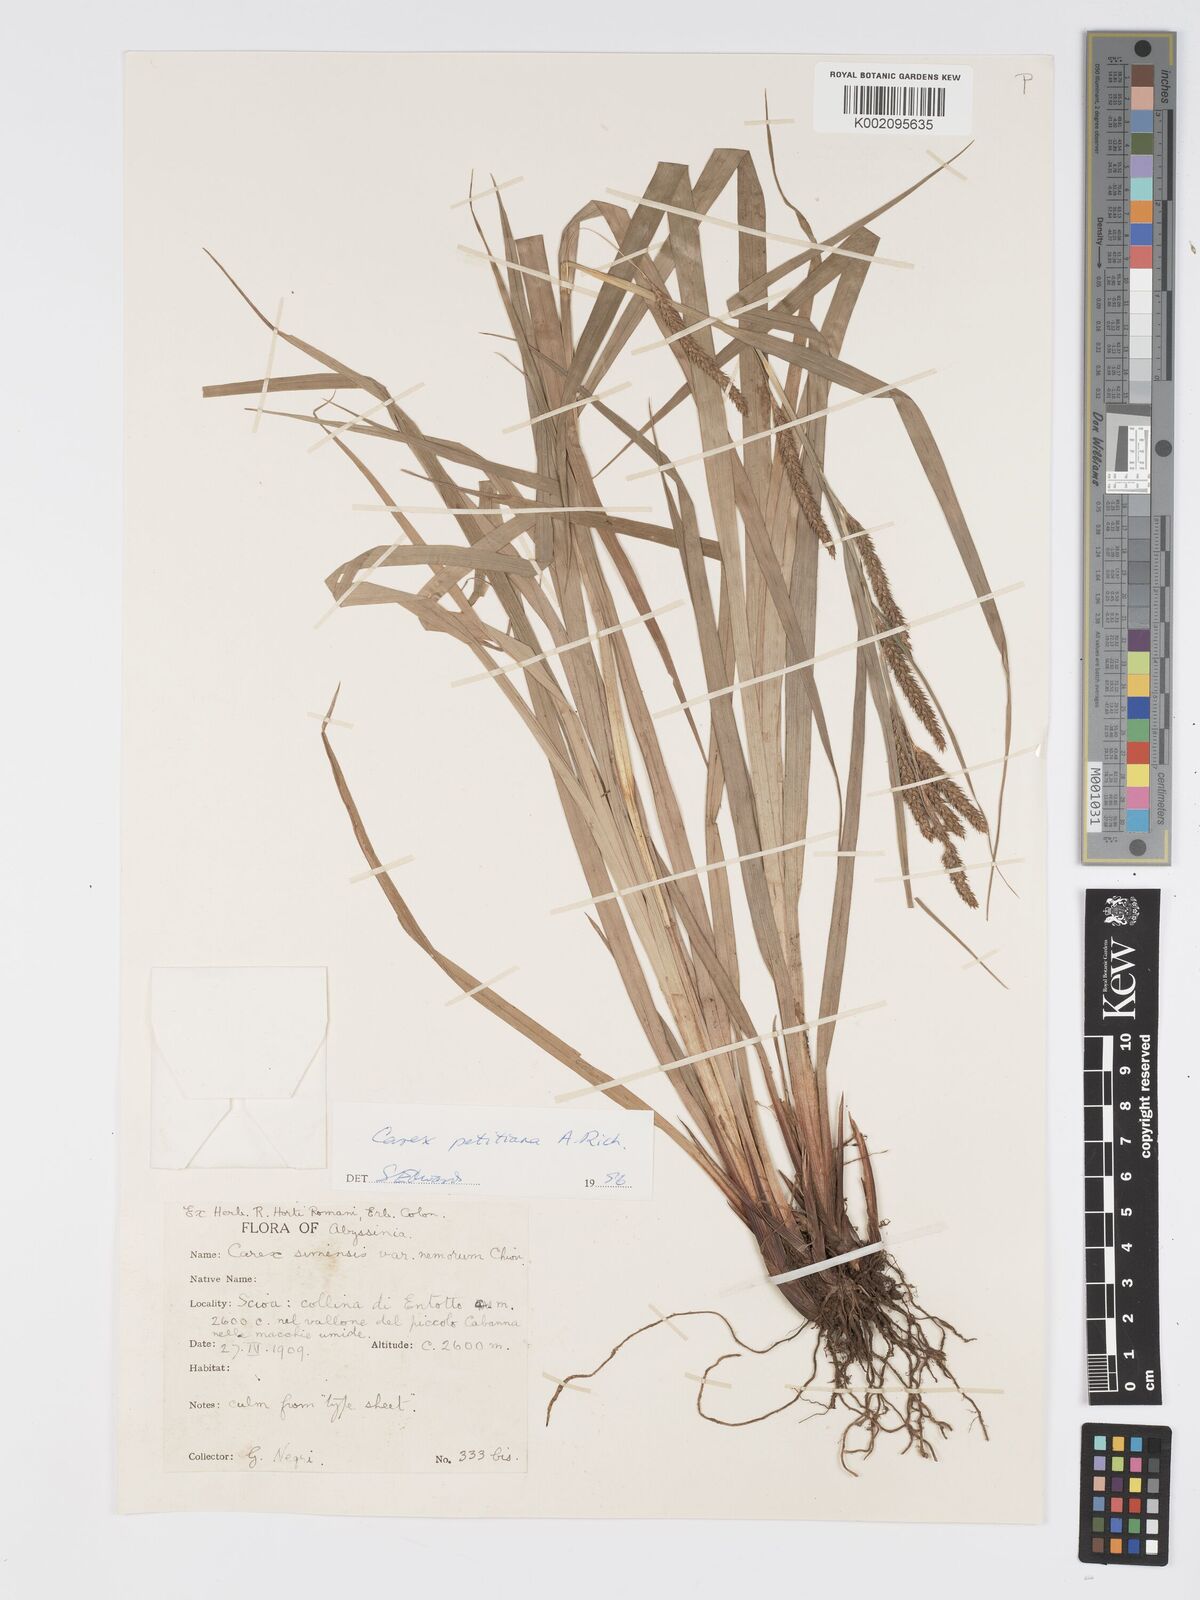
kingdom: Plantae
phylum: Tracheophyta
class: Liliopsida
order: Poales
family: Cyperaceae
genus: Carex
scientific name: Carex petitiana
